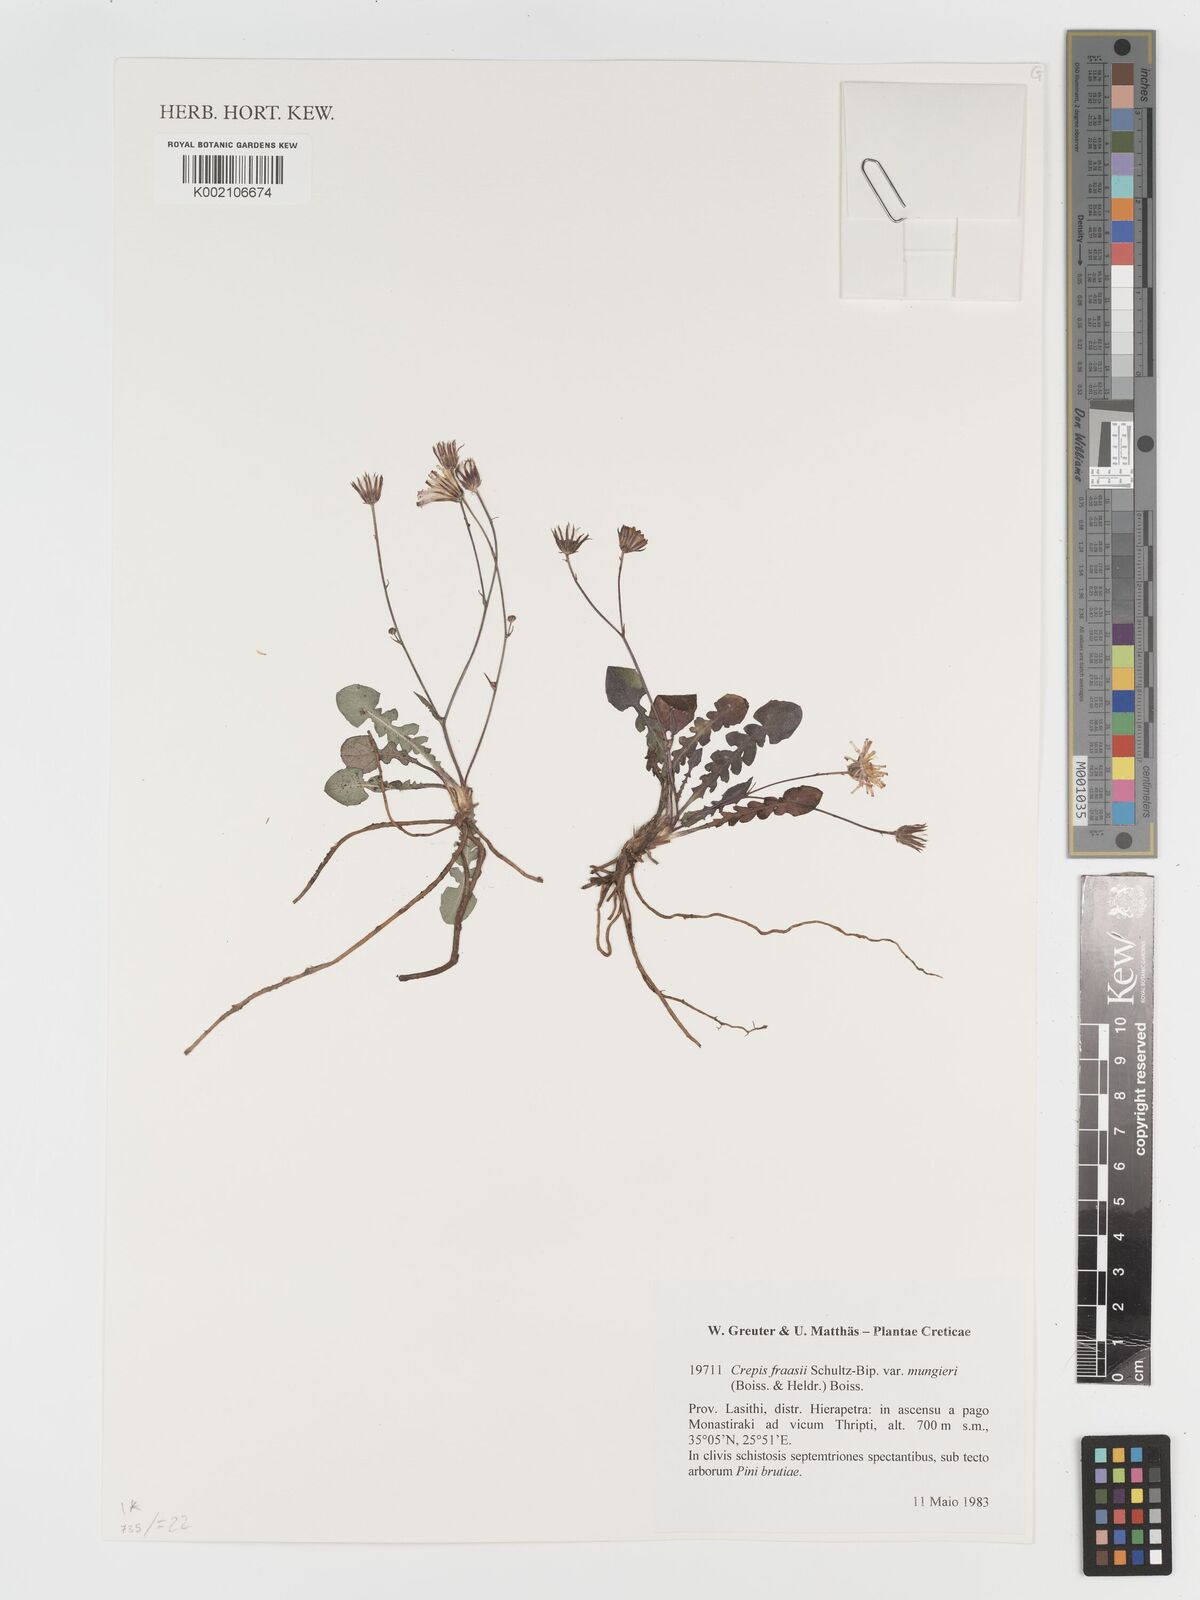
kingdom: Plantae
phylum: Tracheophyta
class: Magnoliopsida
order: Asterales
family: Asteraceae
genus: Crepis
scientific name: Crepis
